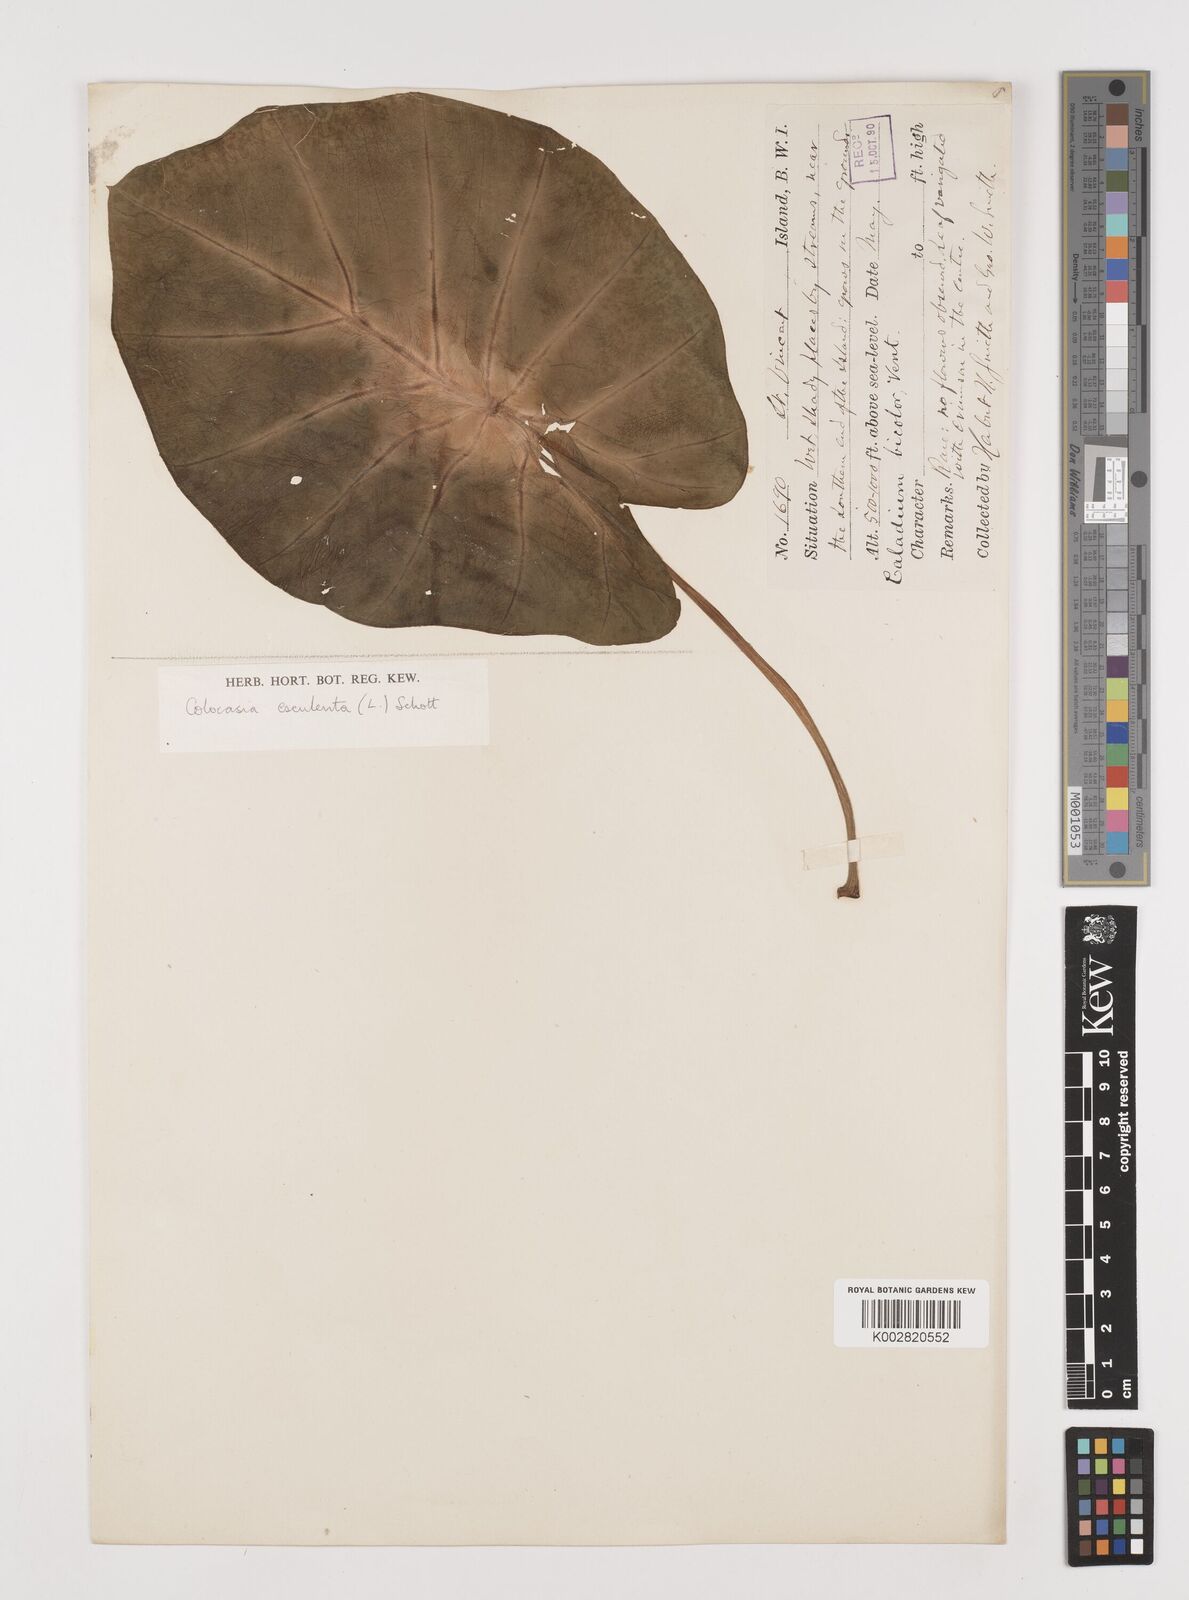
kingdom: Plantae
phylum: Tracheophyta
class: Liliopsida
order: Alismatales
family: Araceae
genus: Colocasia
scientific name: Colocasia esculenta
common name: Taro
